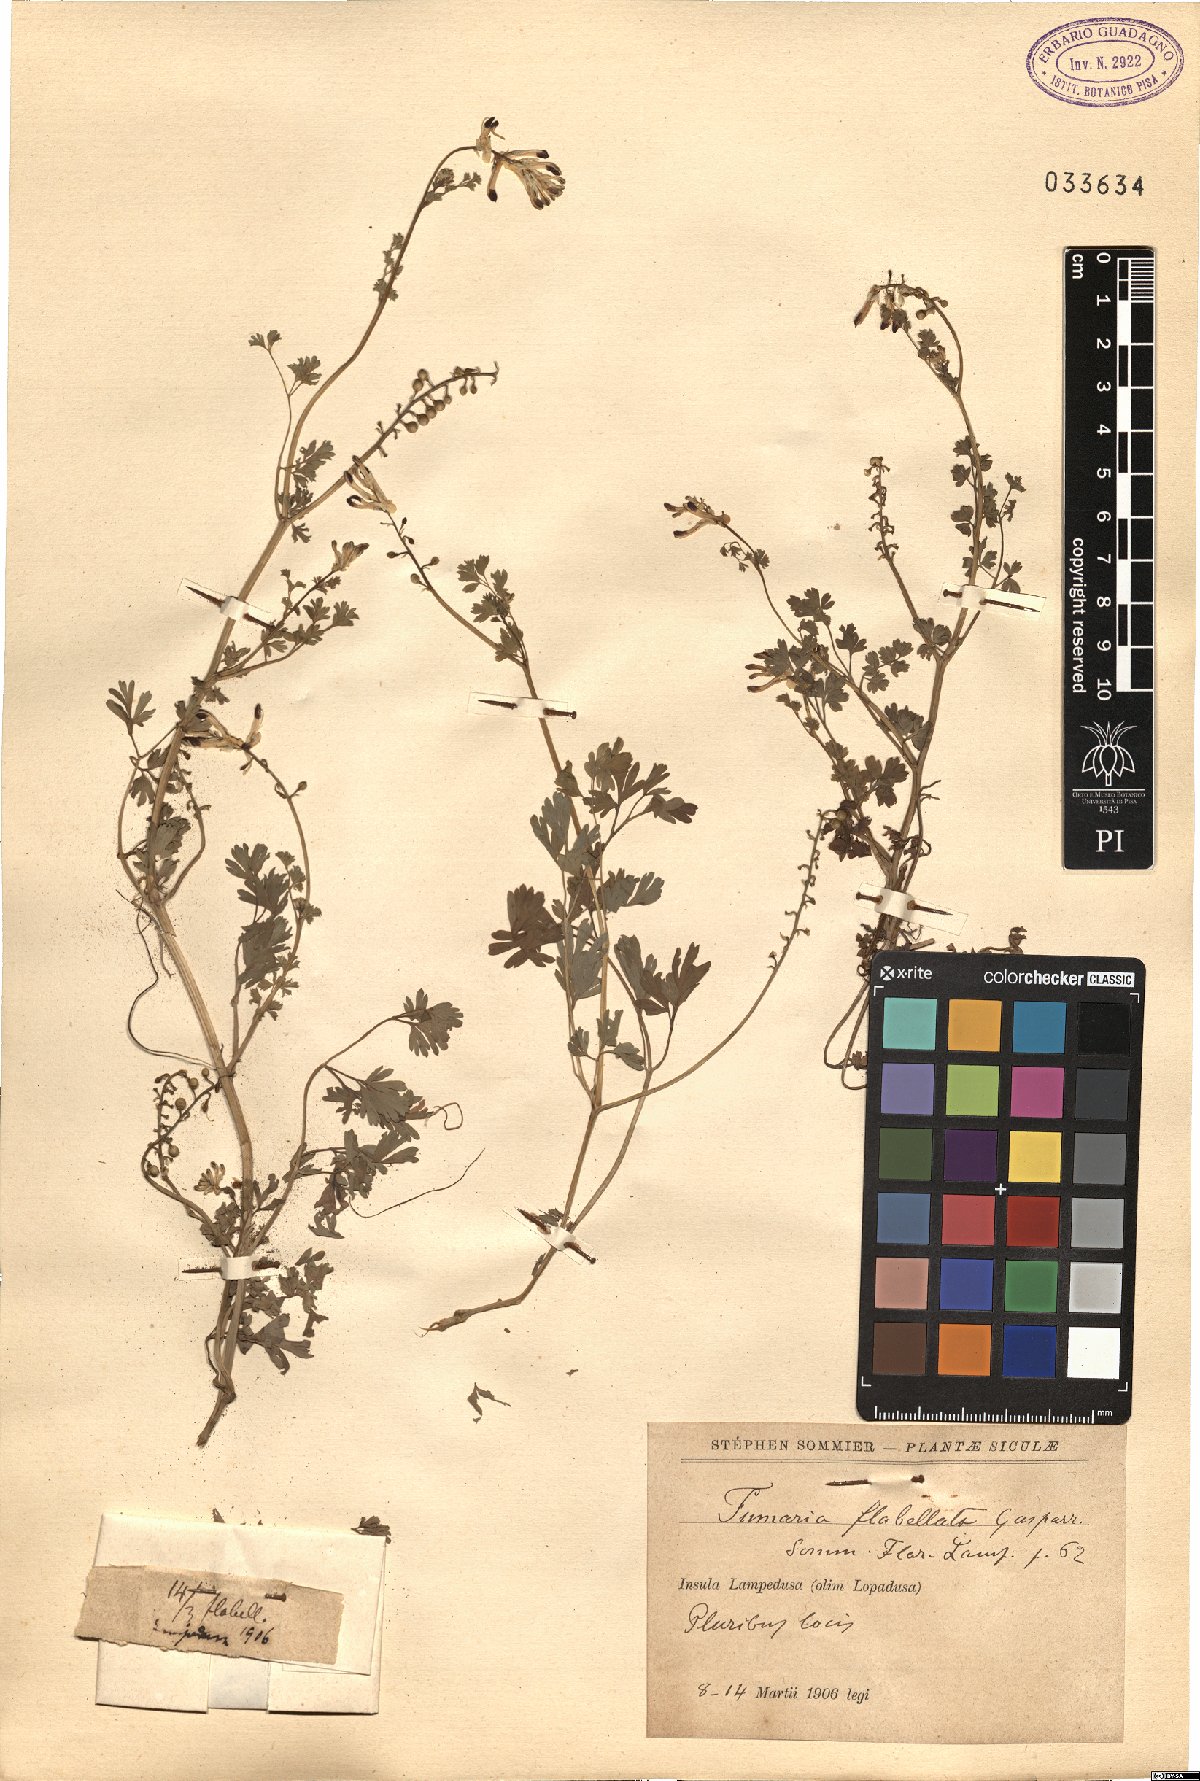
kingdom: Plantae
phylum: Tracheophyta
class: Magnoliopsida
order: Ranunculales
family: Papaveraceae
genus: Fumaria
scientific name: Fumaria flabellata
